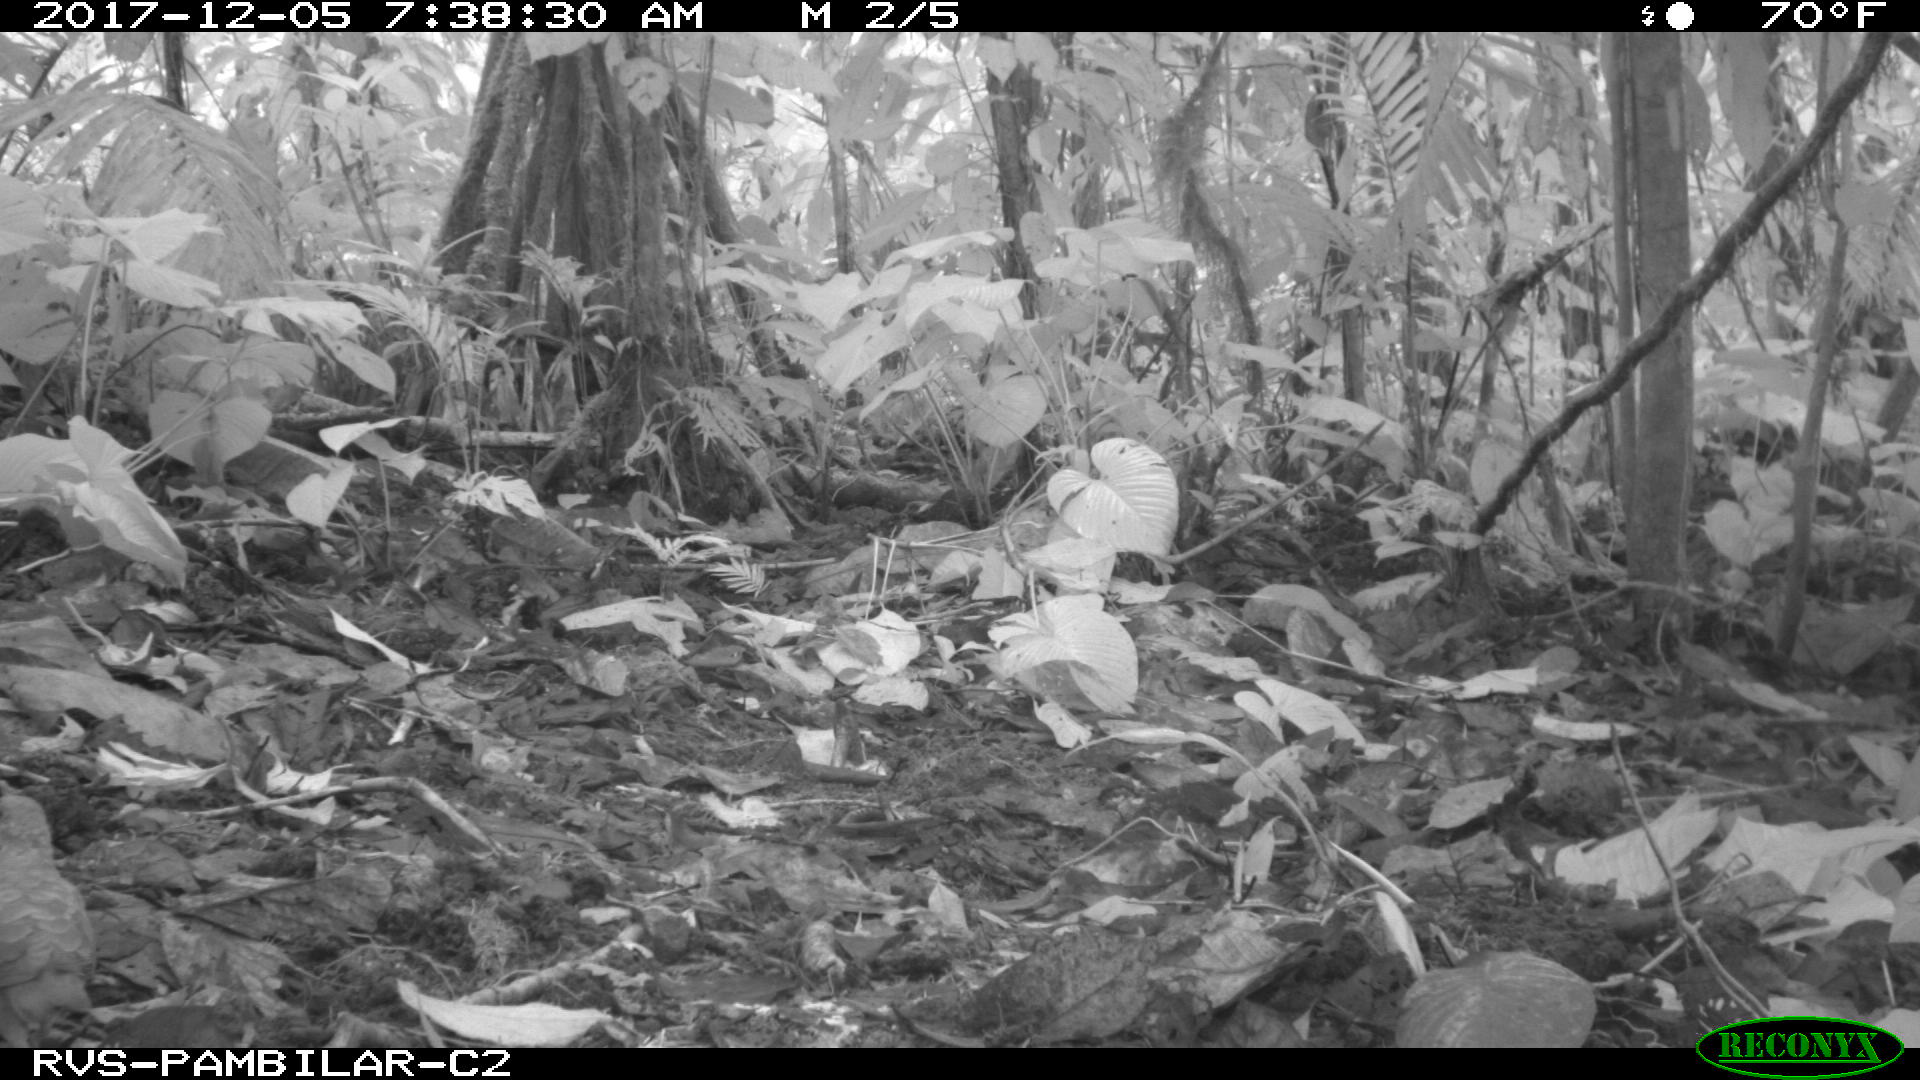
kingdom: Animalia
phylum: Chordata
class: Aves
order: Columbiformes
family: Columbidae
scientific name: Columbidae
